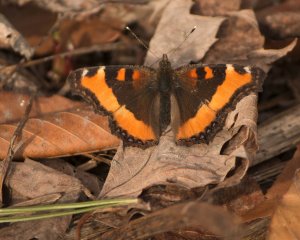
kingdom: Animalia
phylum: Arthropoda
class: Insecta
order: Lepidoptera
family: Nymphalidae
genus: Aglais
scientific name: Aglais milberti
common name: Milbert's Tortoiseshell
